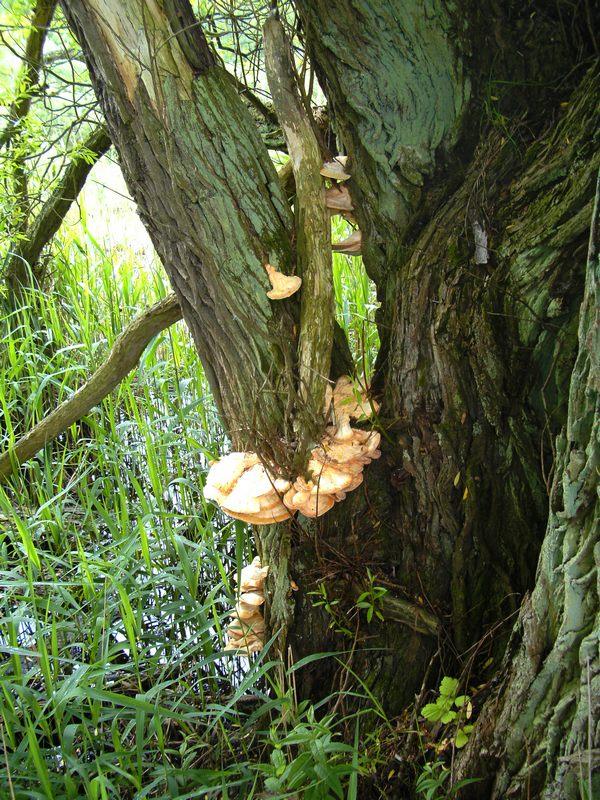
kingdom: Fungi
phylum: Basidiomycota
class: Agaricomycetes
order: Polyporales
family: Laetiporaceae
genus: Laetiporus
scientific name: Laetiporus sulphureus
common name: svovlporesvamp
